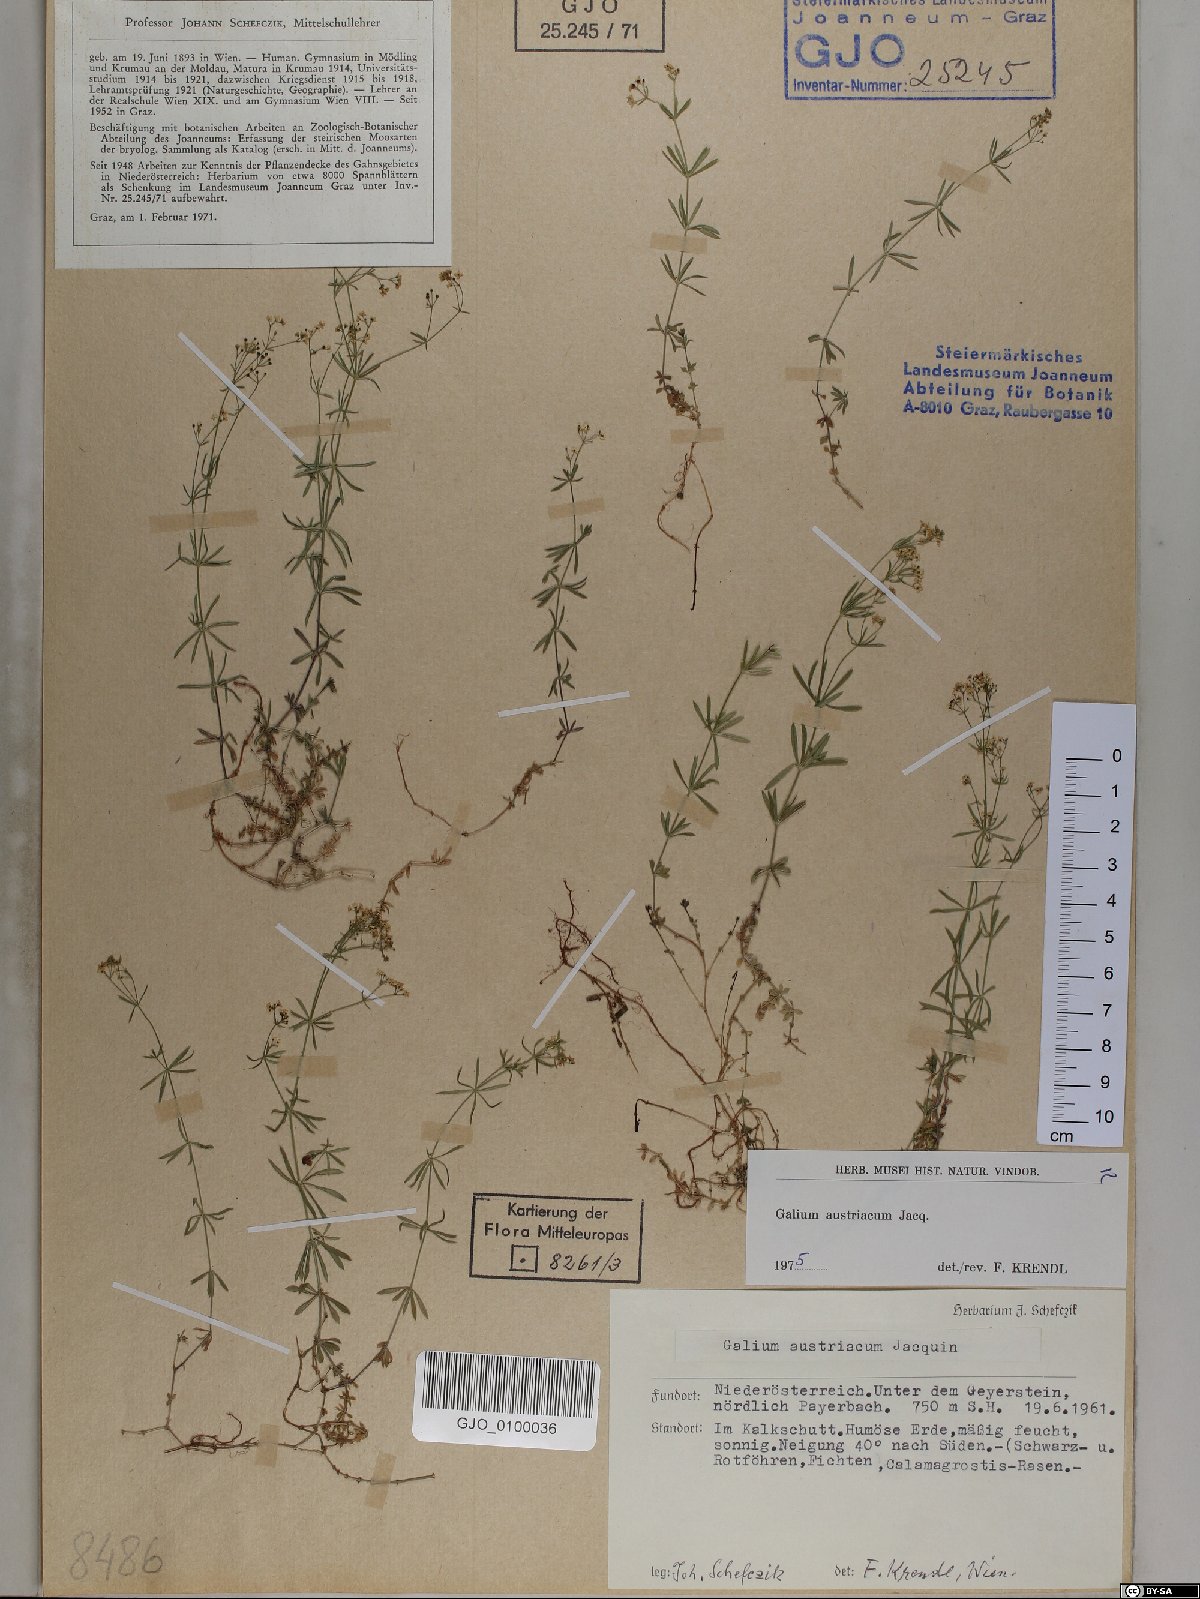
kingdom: Plantae
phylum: Tracheophyta
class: Magnoliopsida
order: Gentianales
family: Rubiaceae
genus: Galium
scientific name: Galium austriacum
